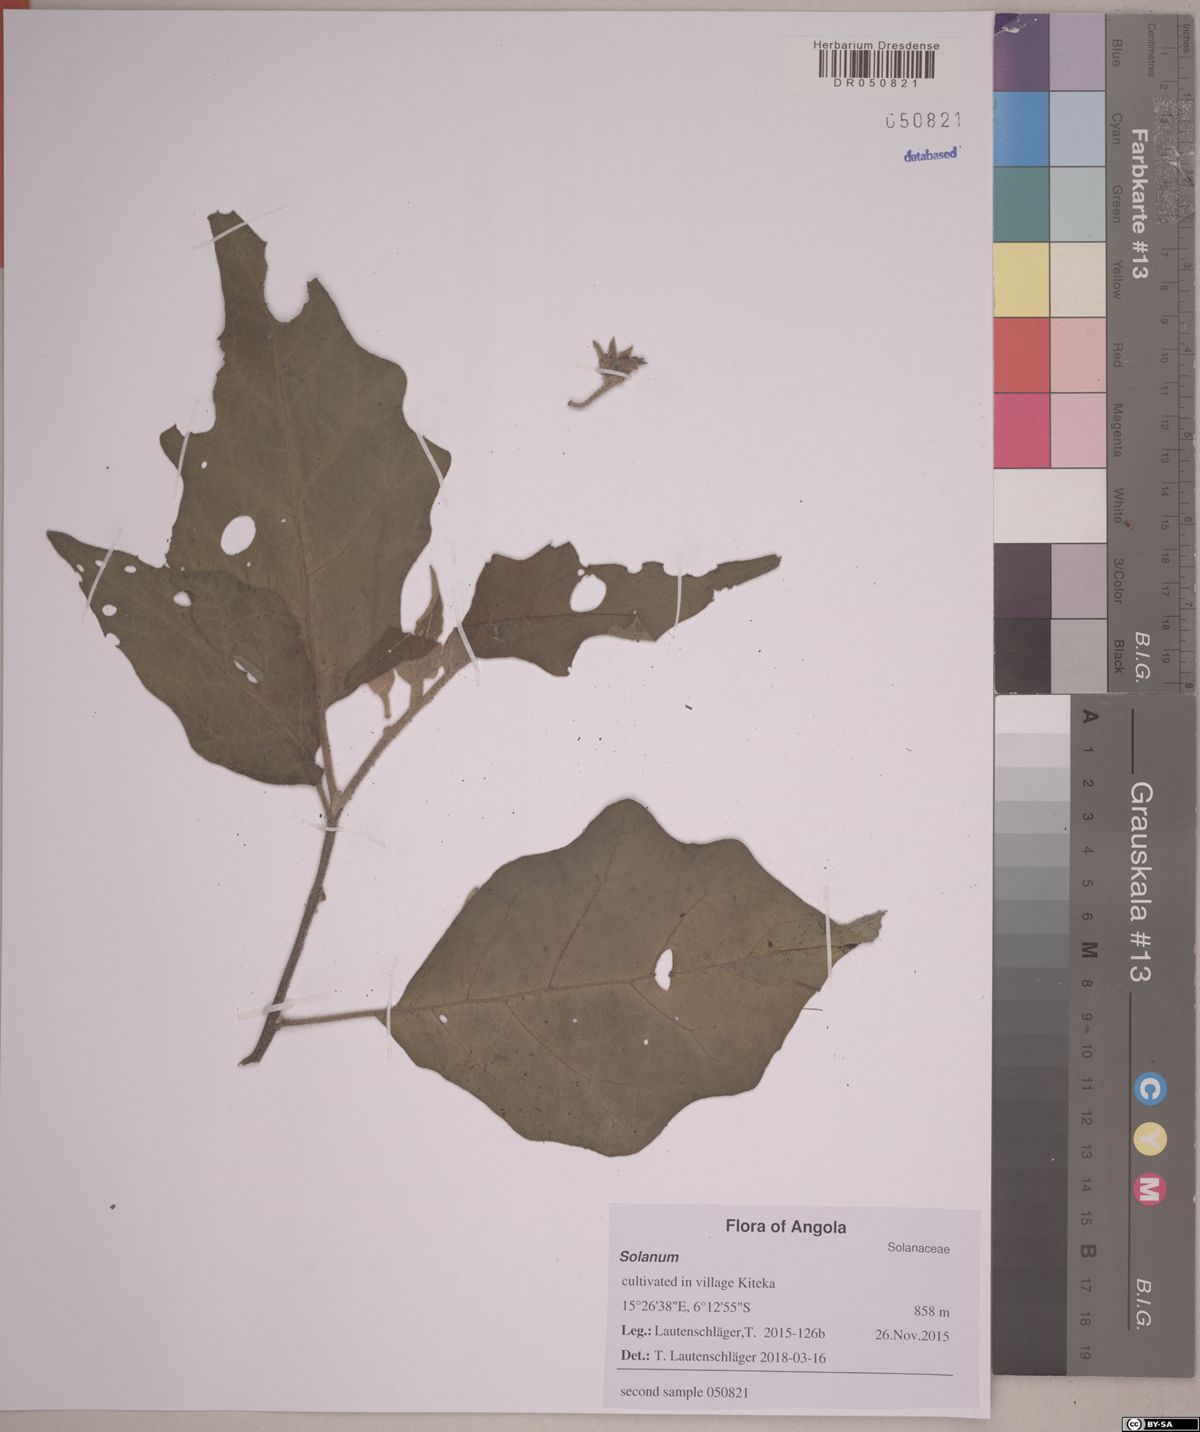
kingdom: Plantae
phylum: Tracheophyta
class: Magnoliopsida
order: Solanales
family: Solanaceae
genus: Solanum
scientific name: Solanum aethiopicum
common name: Gilo
